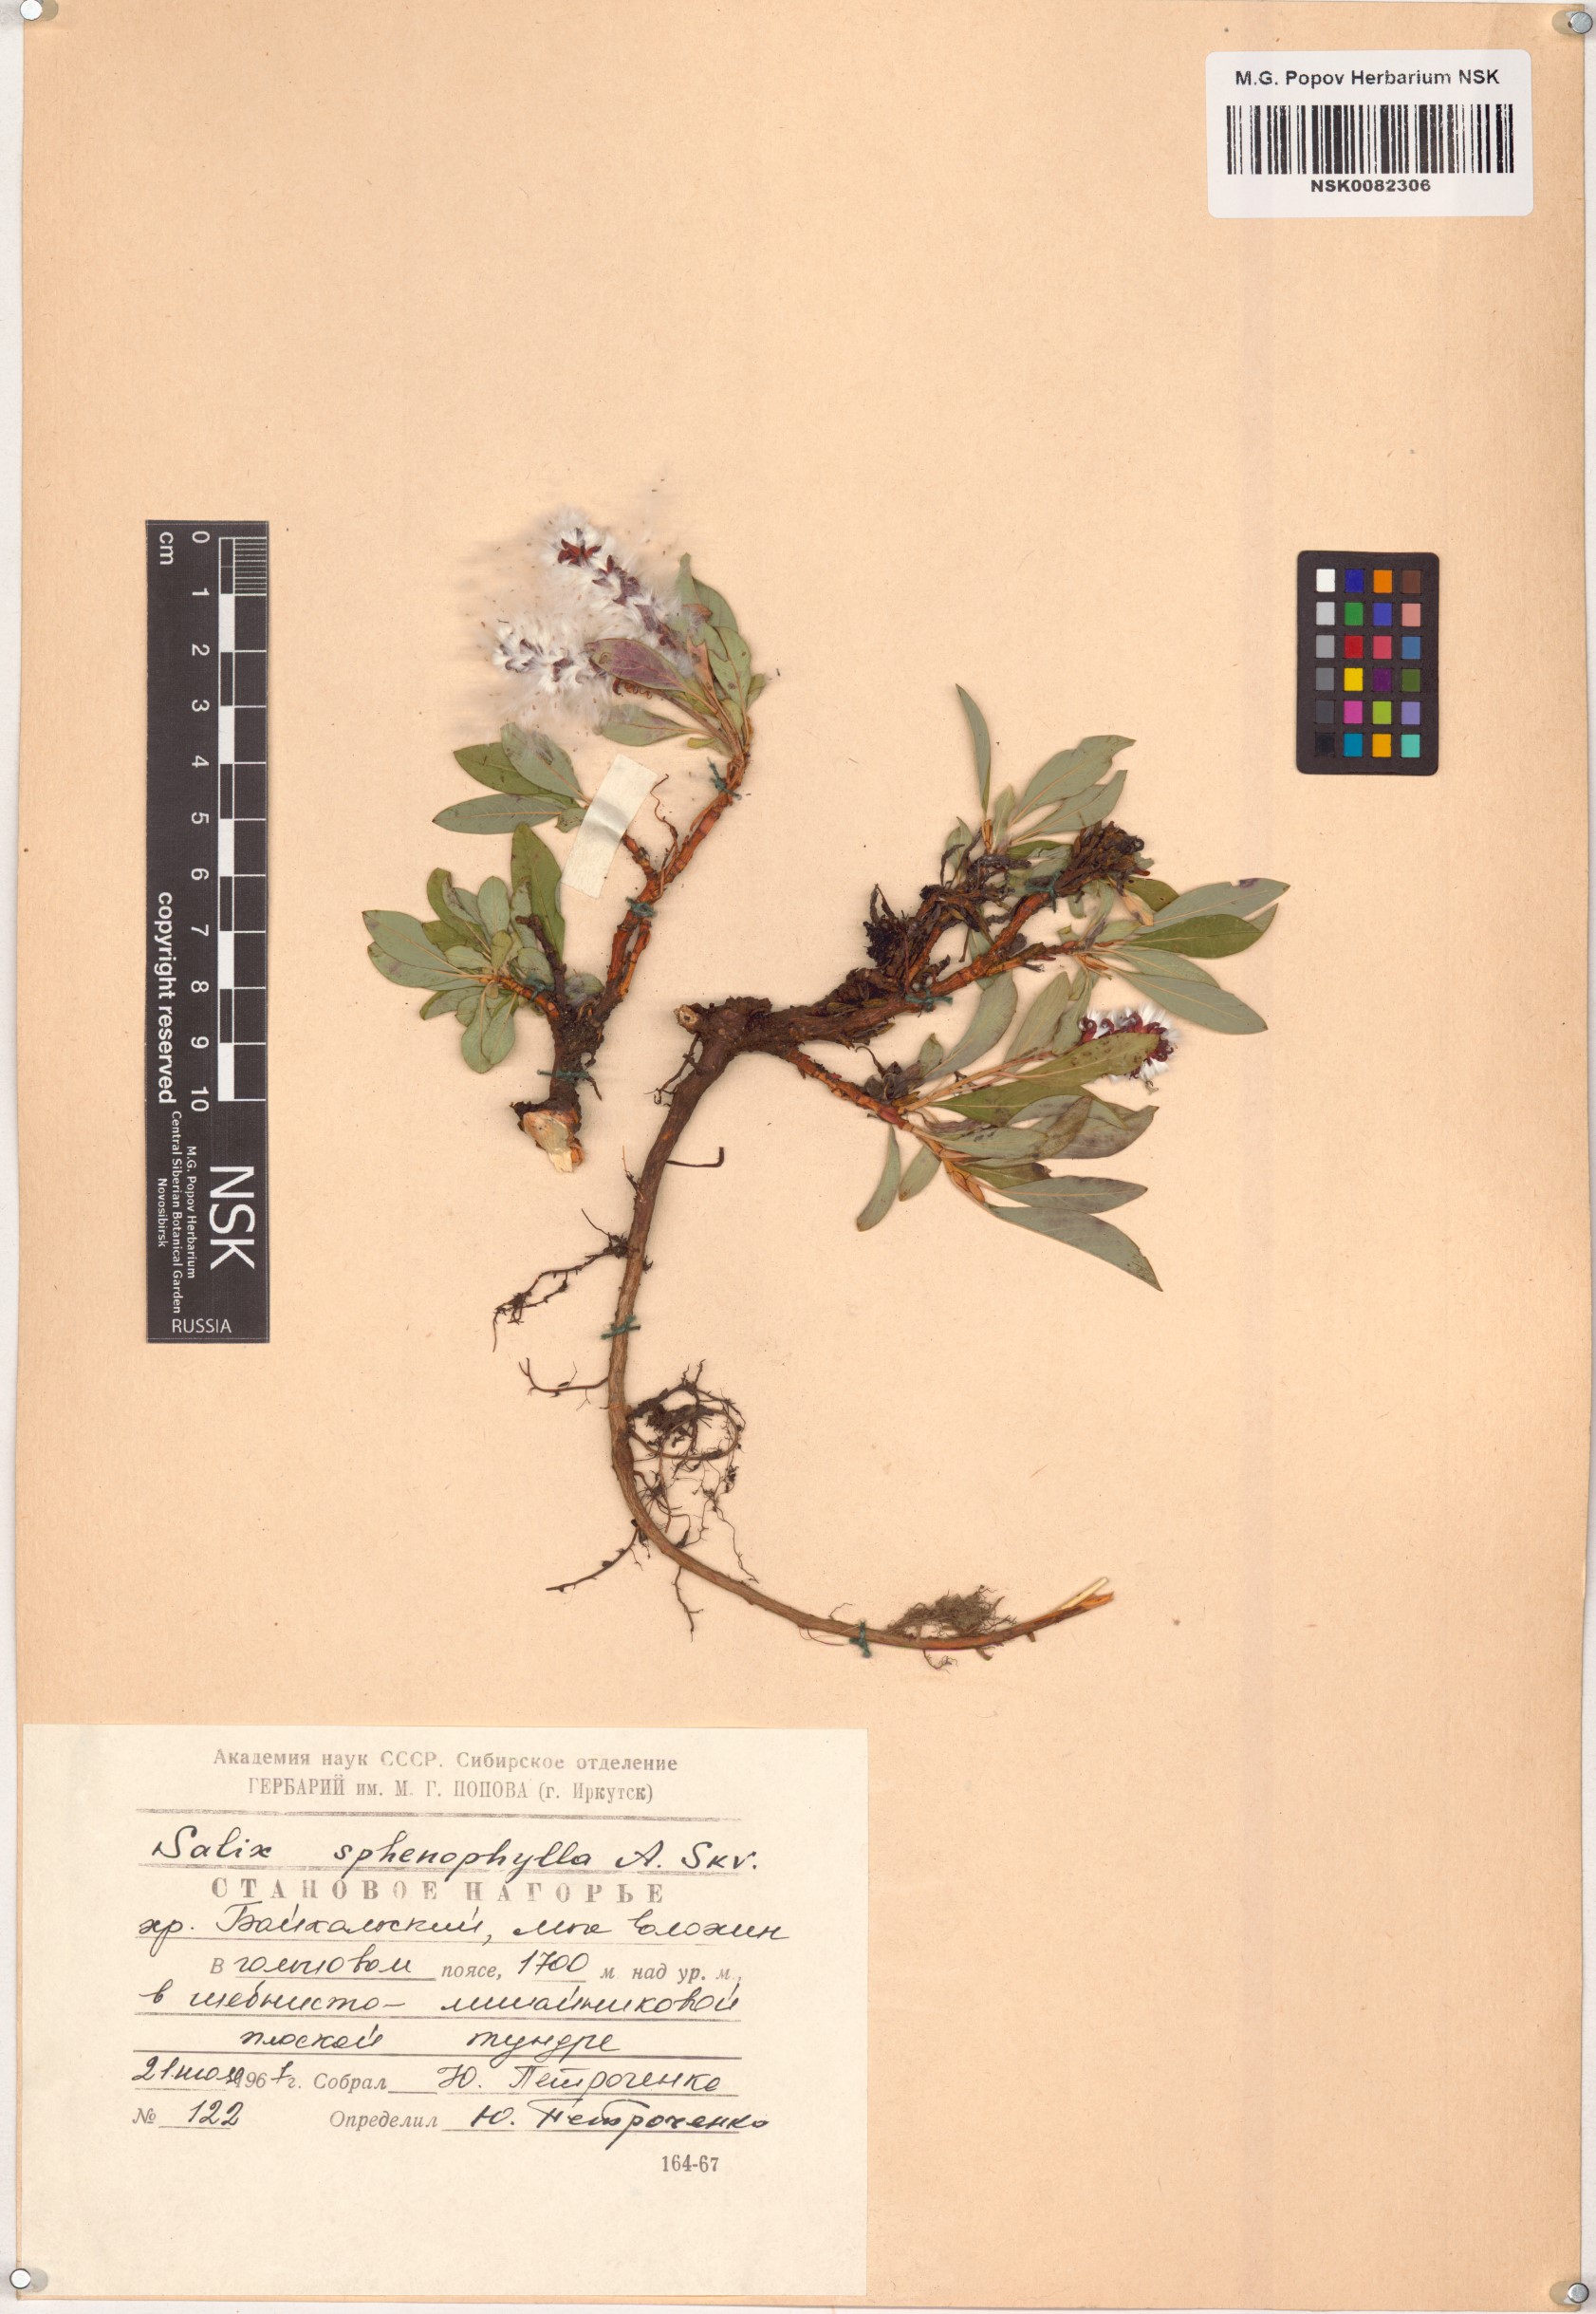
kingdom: Plantae
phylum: Tracheophyta
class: Magnoliopsida
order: Malpighiales
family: Salicaceae
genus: Salix
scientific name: Salix sphenophylla
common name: Wedge-leaved willow
